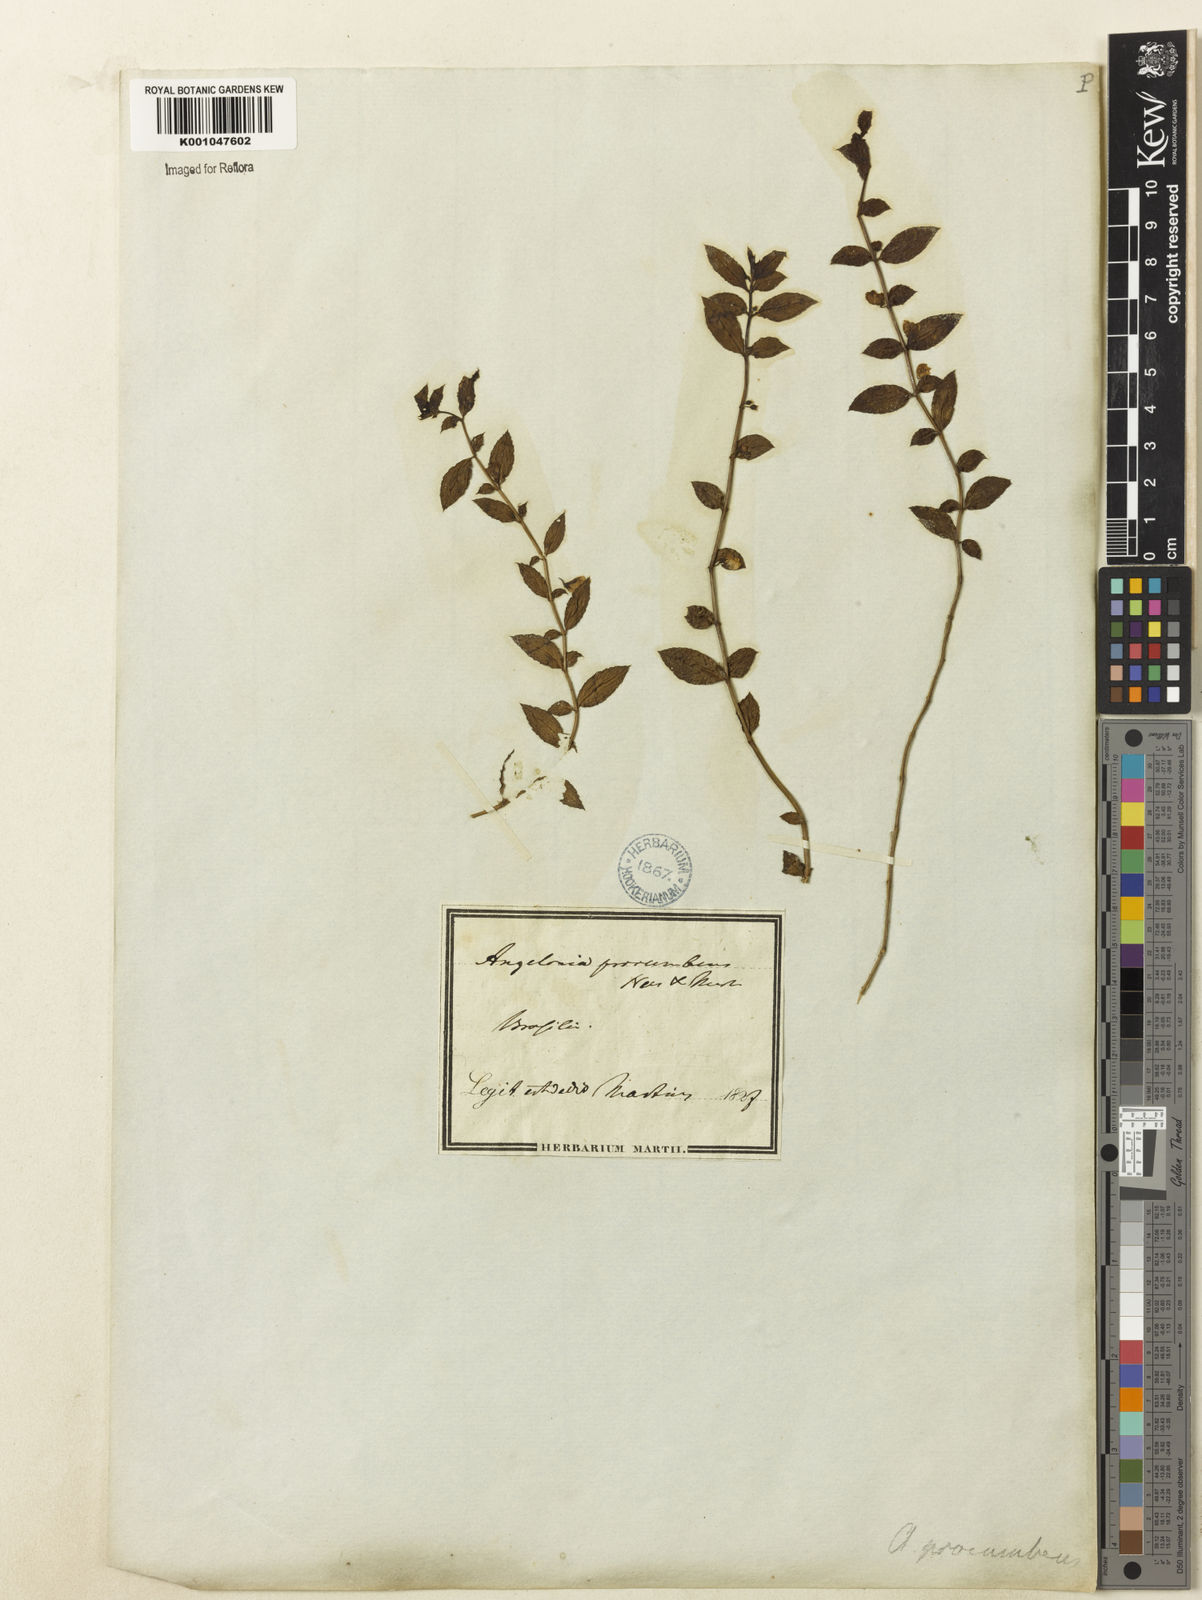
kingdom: Plantae
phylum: Tracheophyta
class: Magnoliopsida
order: Lamiales
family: Plantaginaceae
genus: Angelonia
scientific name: Angelonia procumbens
